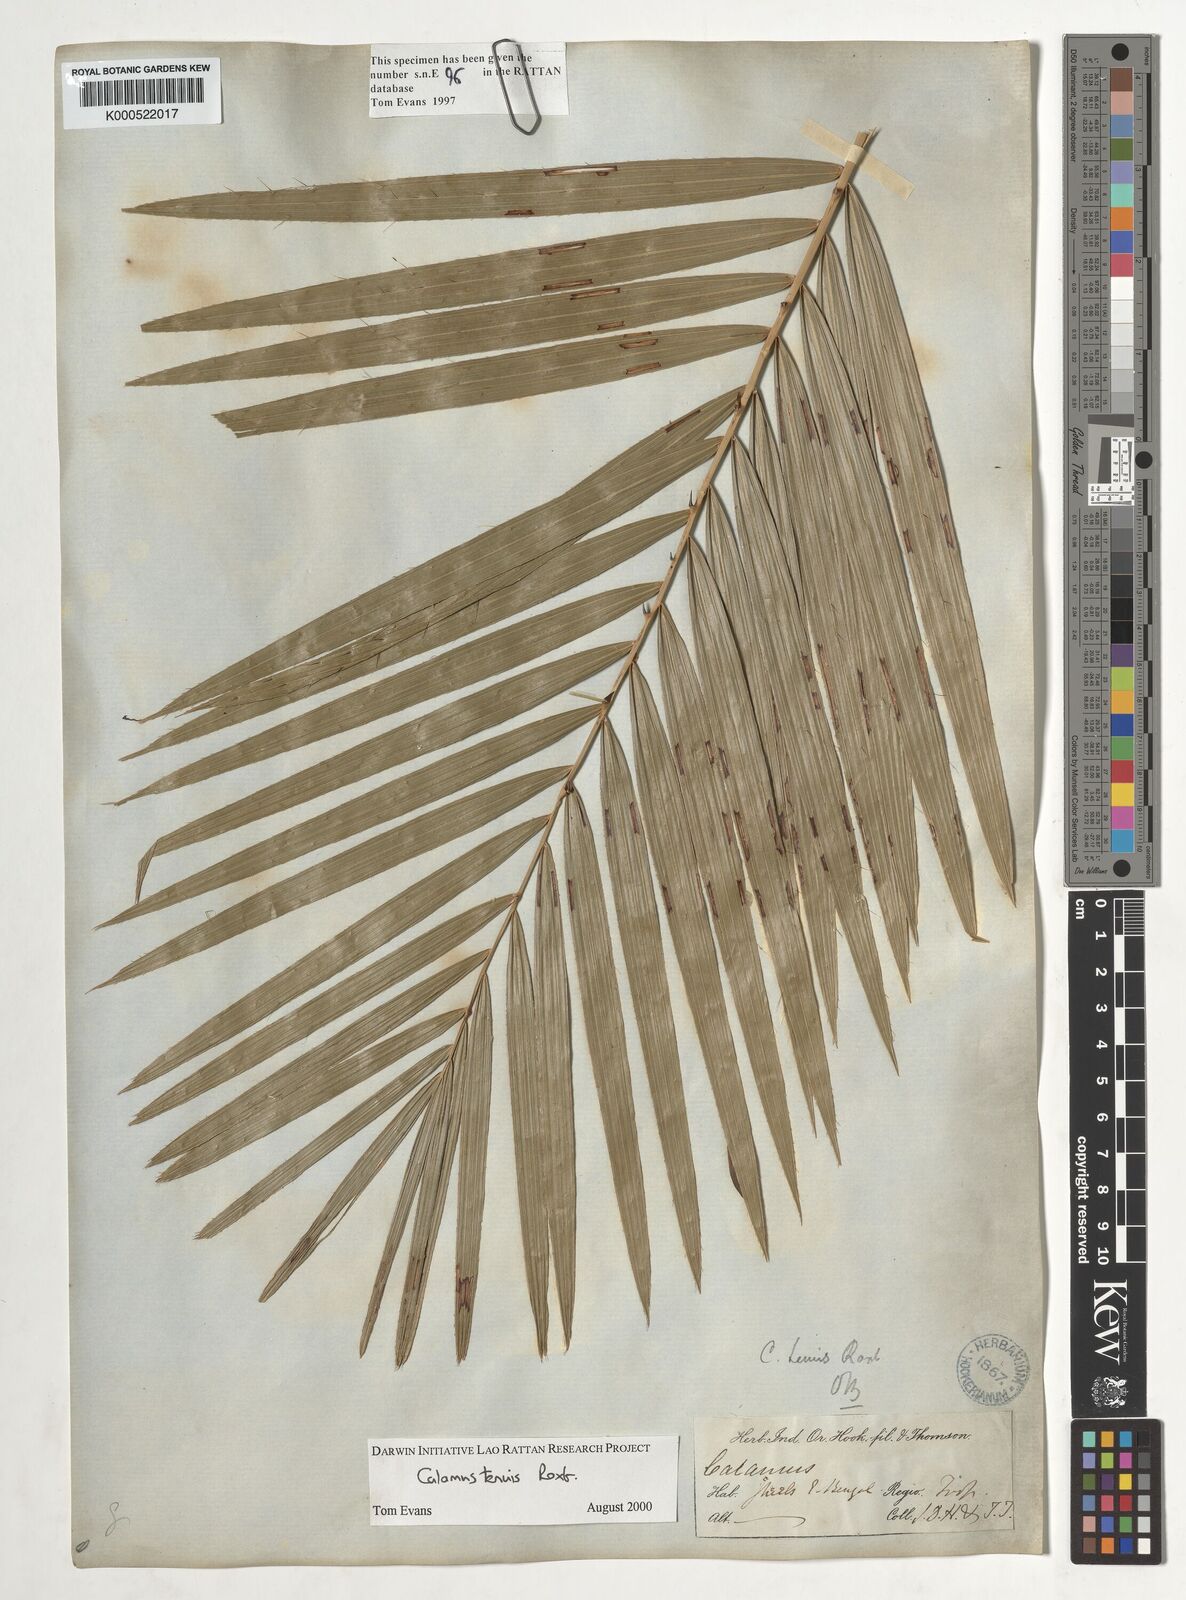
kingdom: Plantae
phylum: Tracheophyta
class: Liliopsida
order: Arecales
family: Arecaceae
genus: Calamus
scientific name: Calamus tenuis
